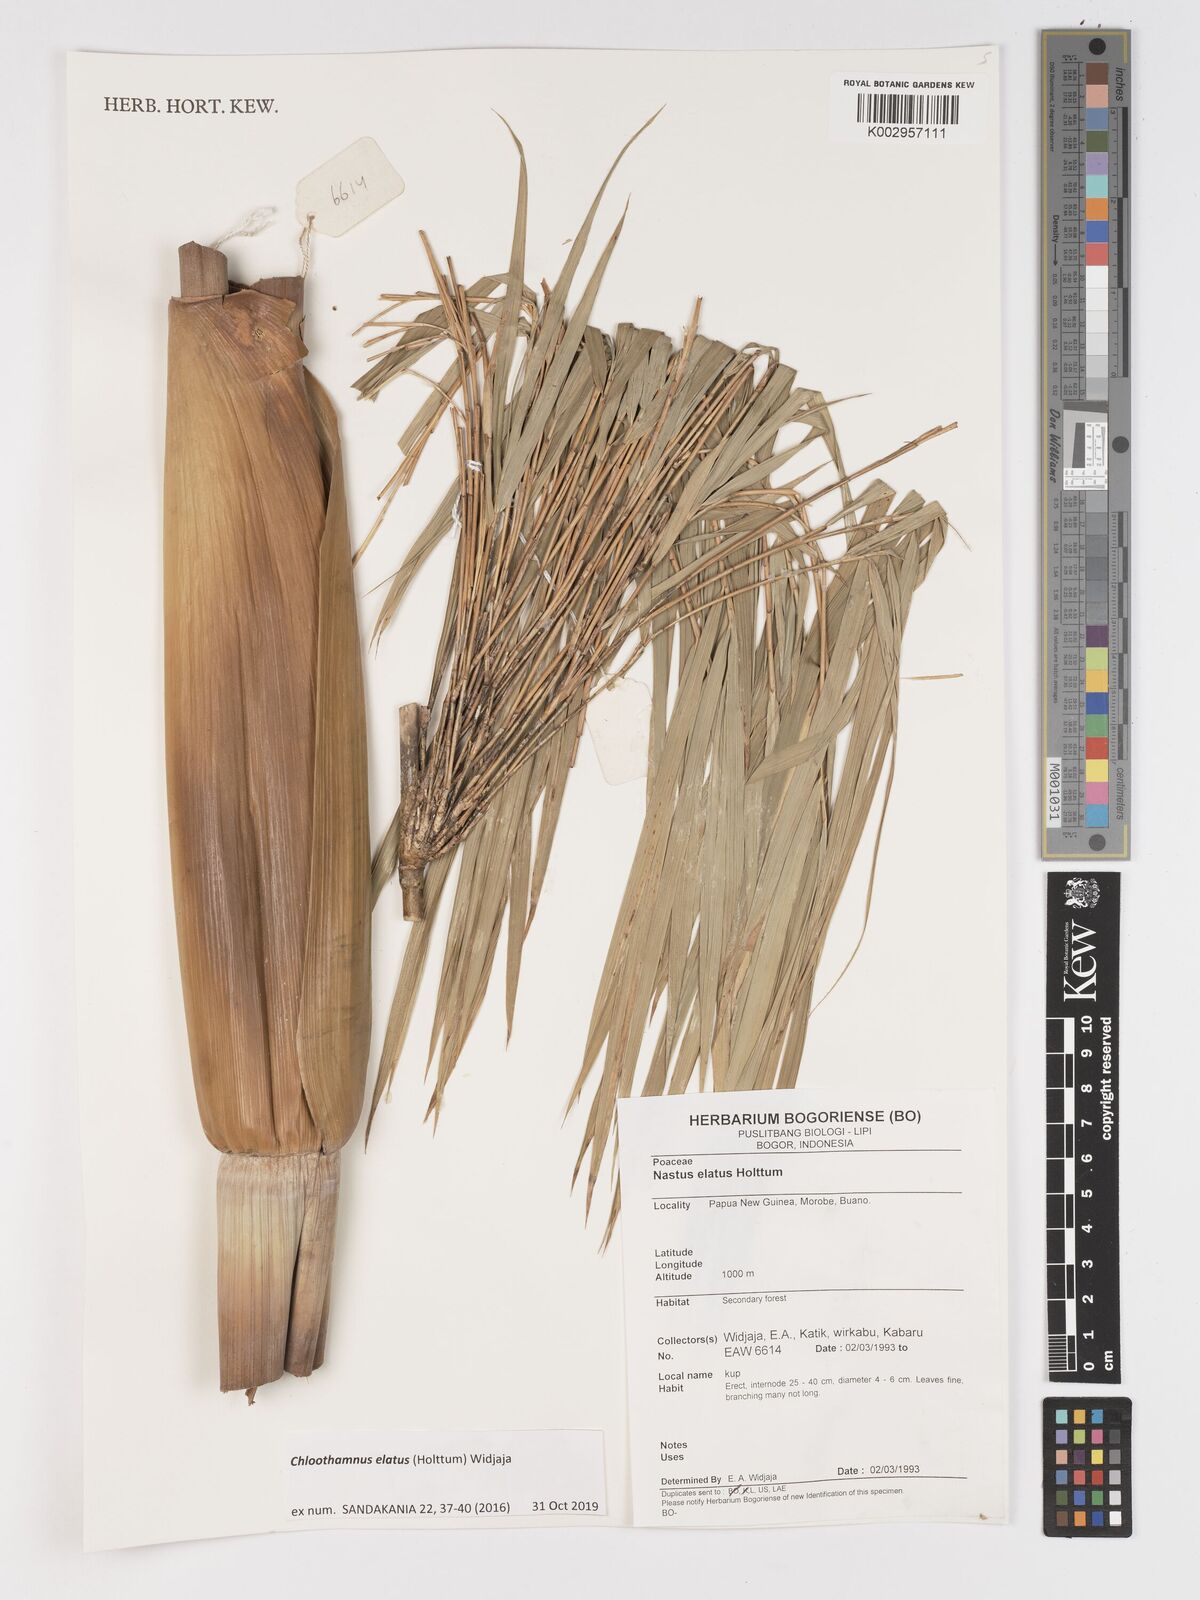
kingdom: Plantae
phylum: Tracheophyta
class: Liliopsida
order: Poales
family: Poaceae
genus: Chloothamnus
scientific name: Chloothamnus elatus
